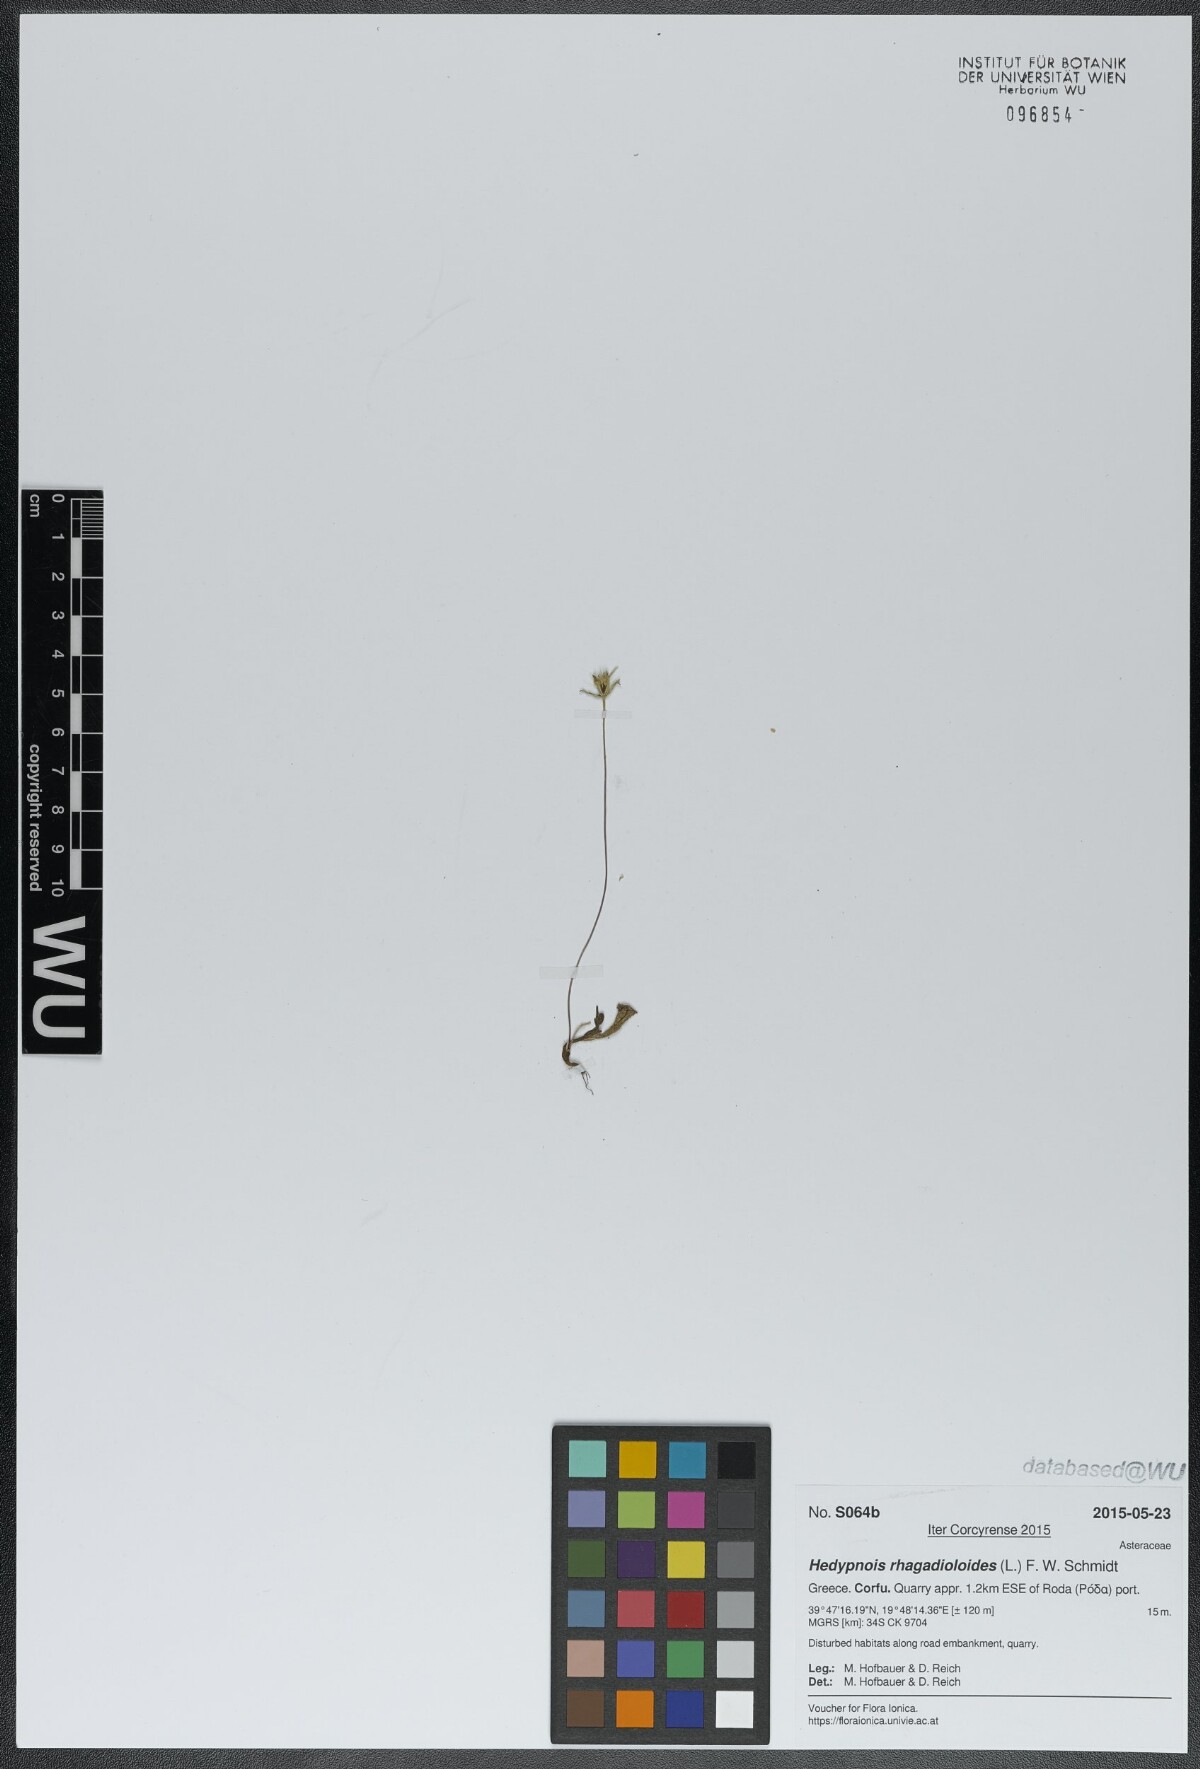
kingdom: Plantae
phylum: Tracheophyta
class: Magnoliopsida
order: Asterales
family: Asteraceae
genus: Hedypnois
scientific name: Hedypnois rhagadioloides
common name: Cretan weed
